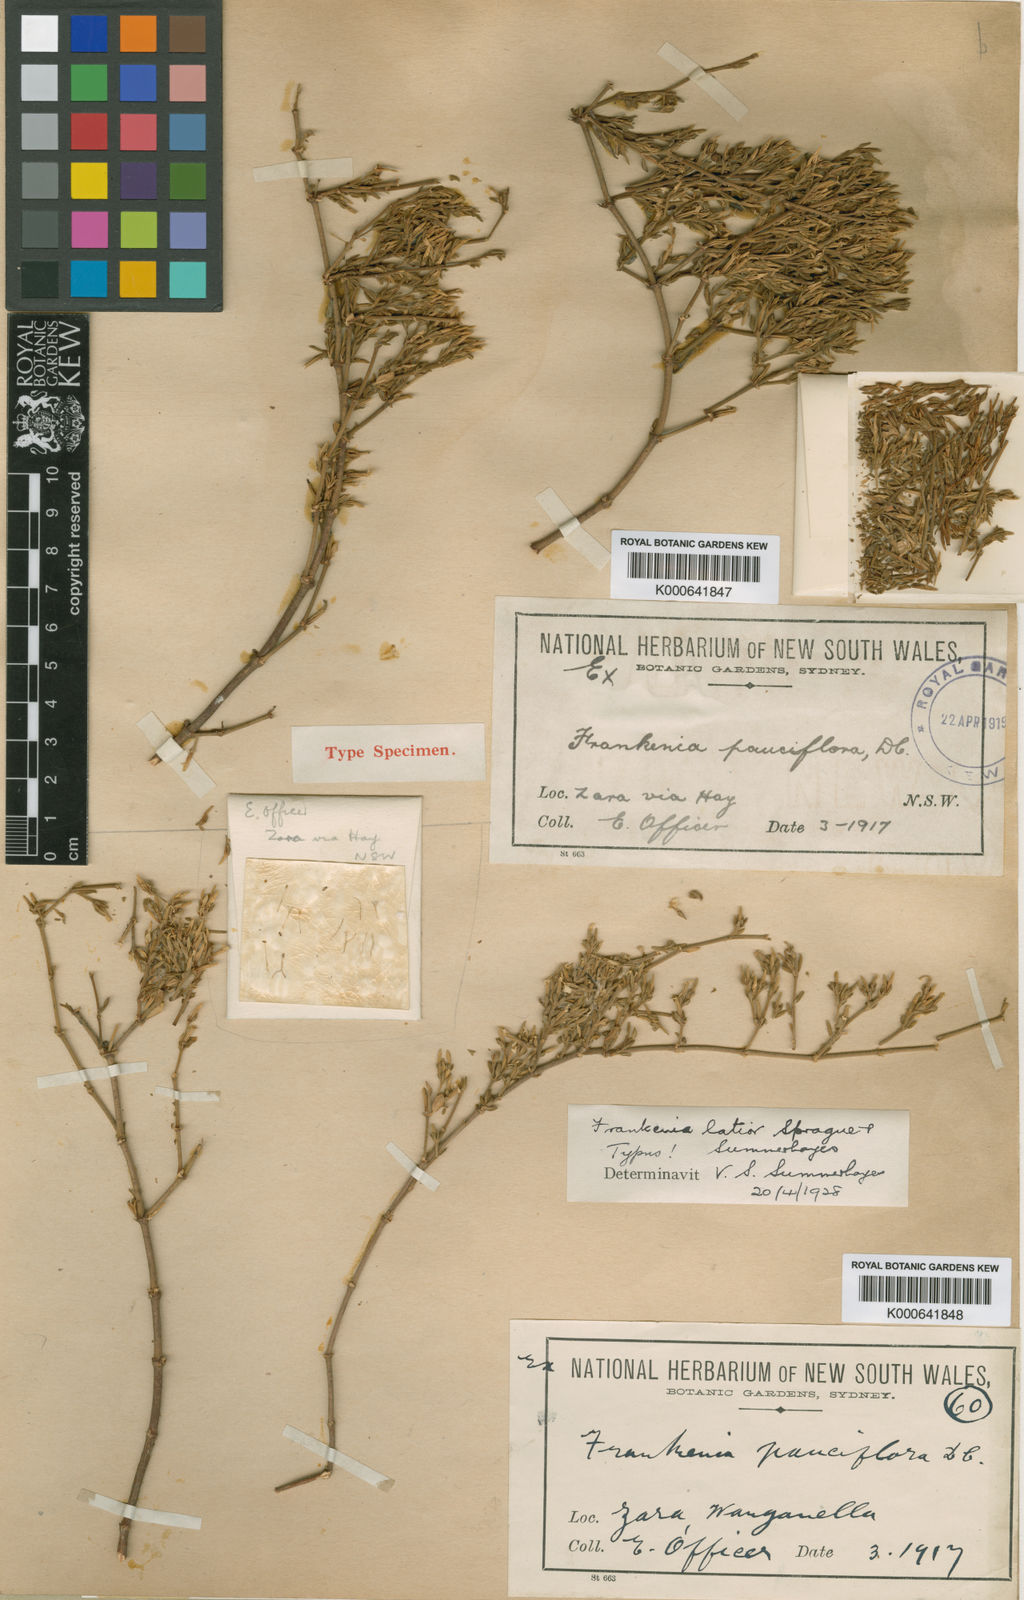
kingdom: Plantae
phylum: Tracheophyta
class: Magnoliopsida
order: Caryophyllales
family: Frankeniaceae
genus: Frankenia
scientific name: Frankenia latior
